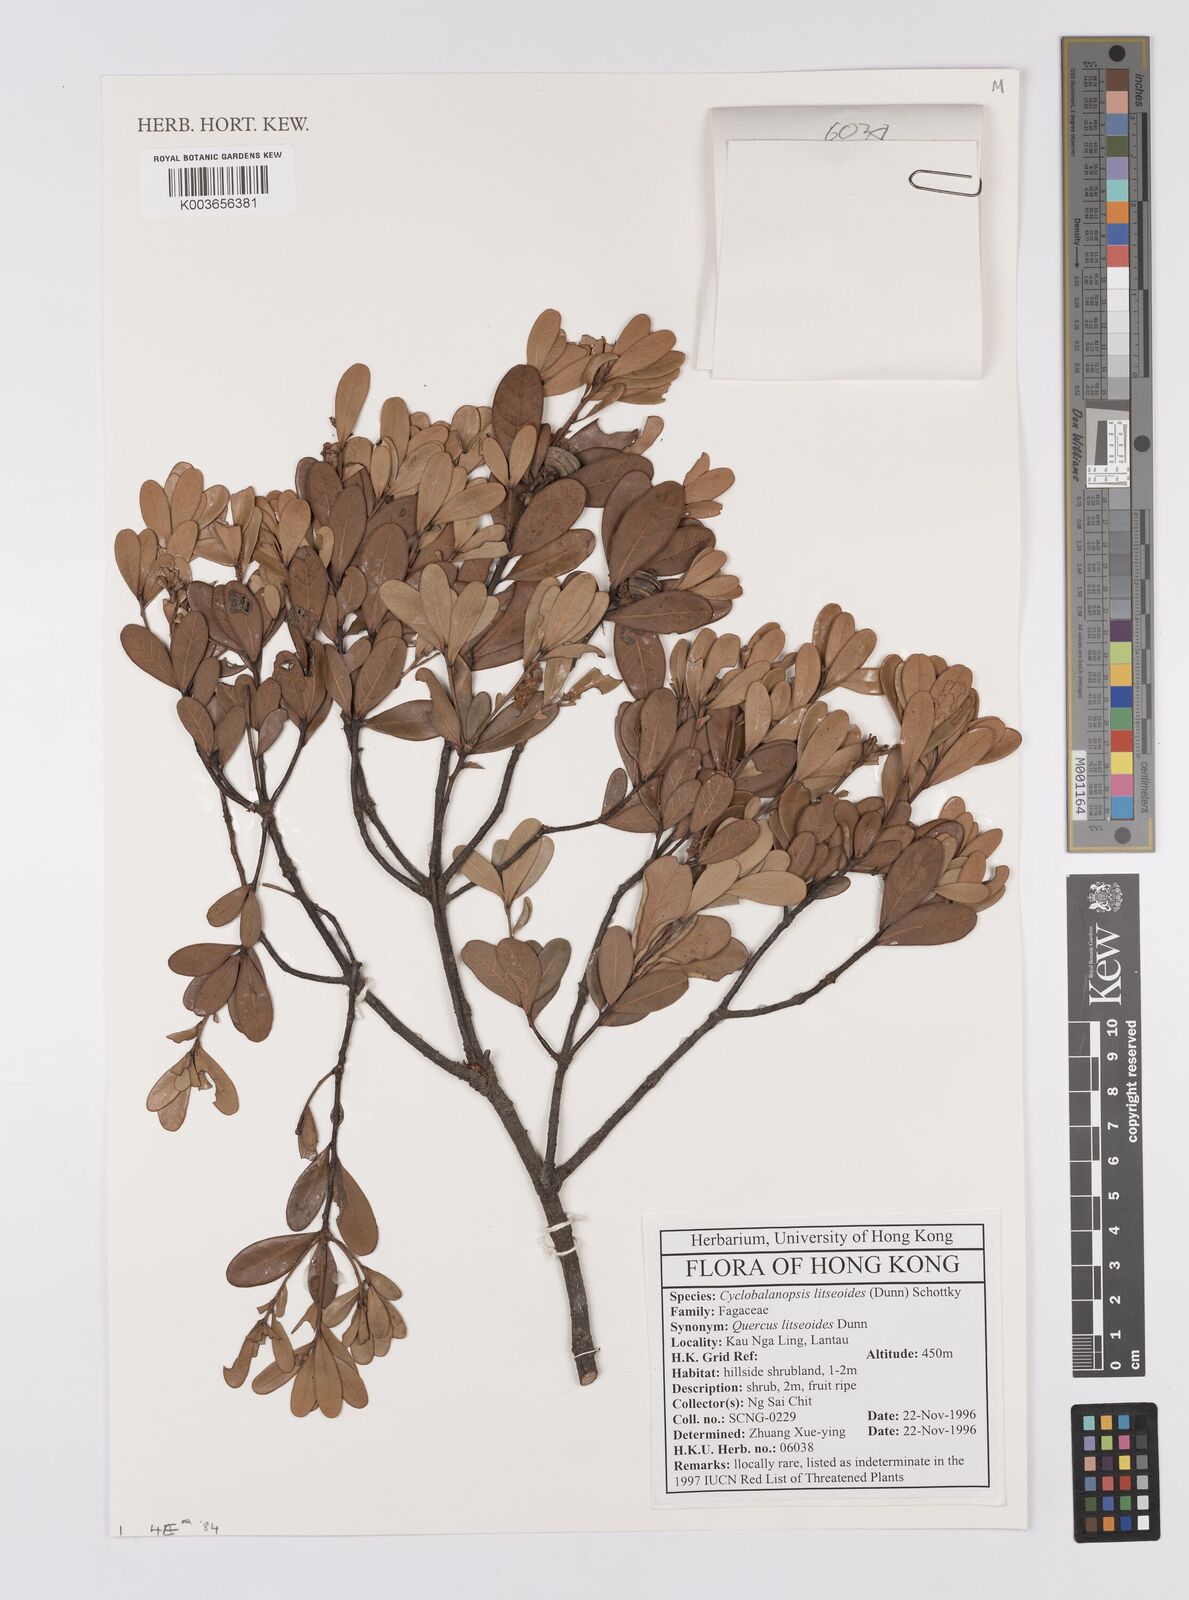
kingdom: Plantae
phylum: Tracheophyta
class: Magnoliopsida
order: Fagales
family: Fagaceae
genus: Quercus
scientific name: Quercus litseoides
